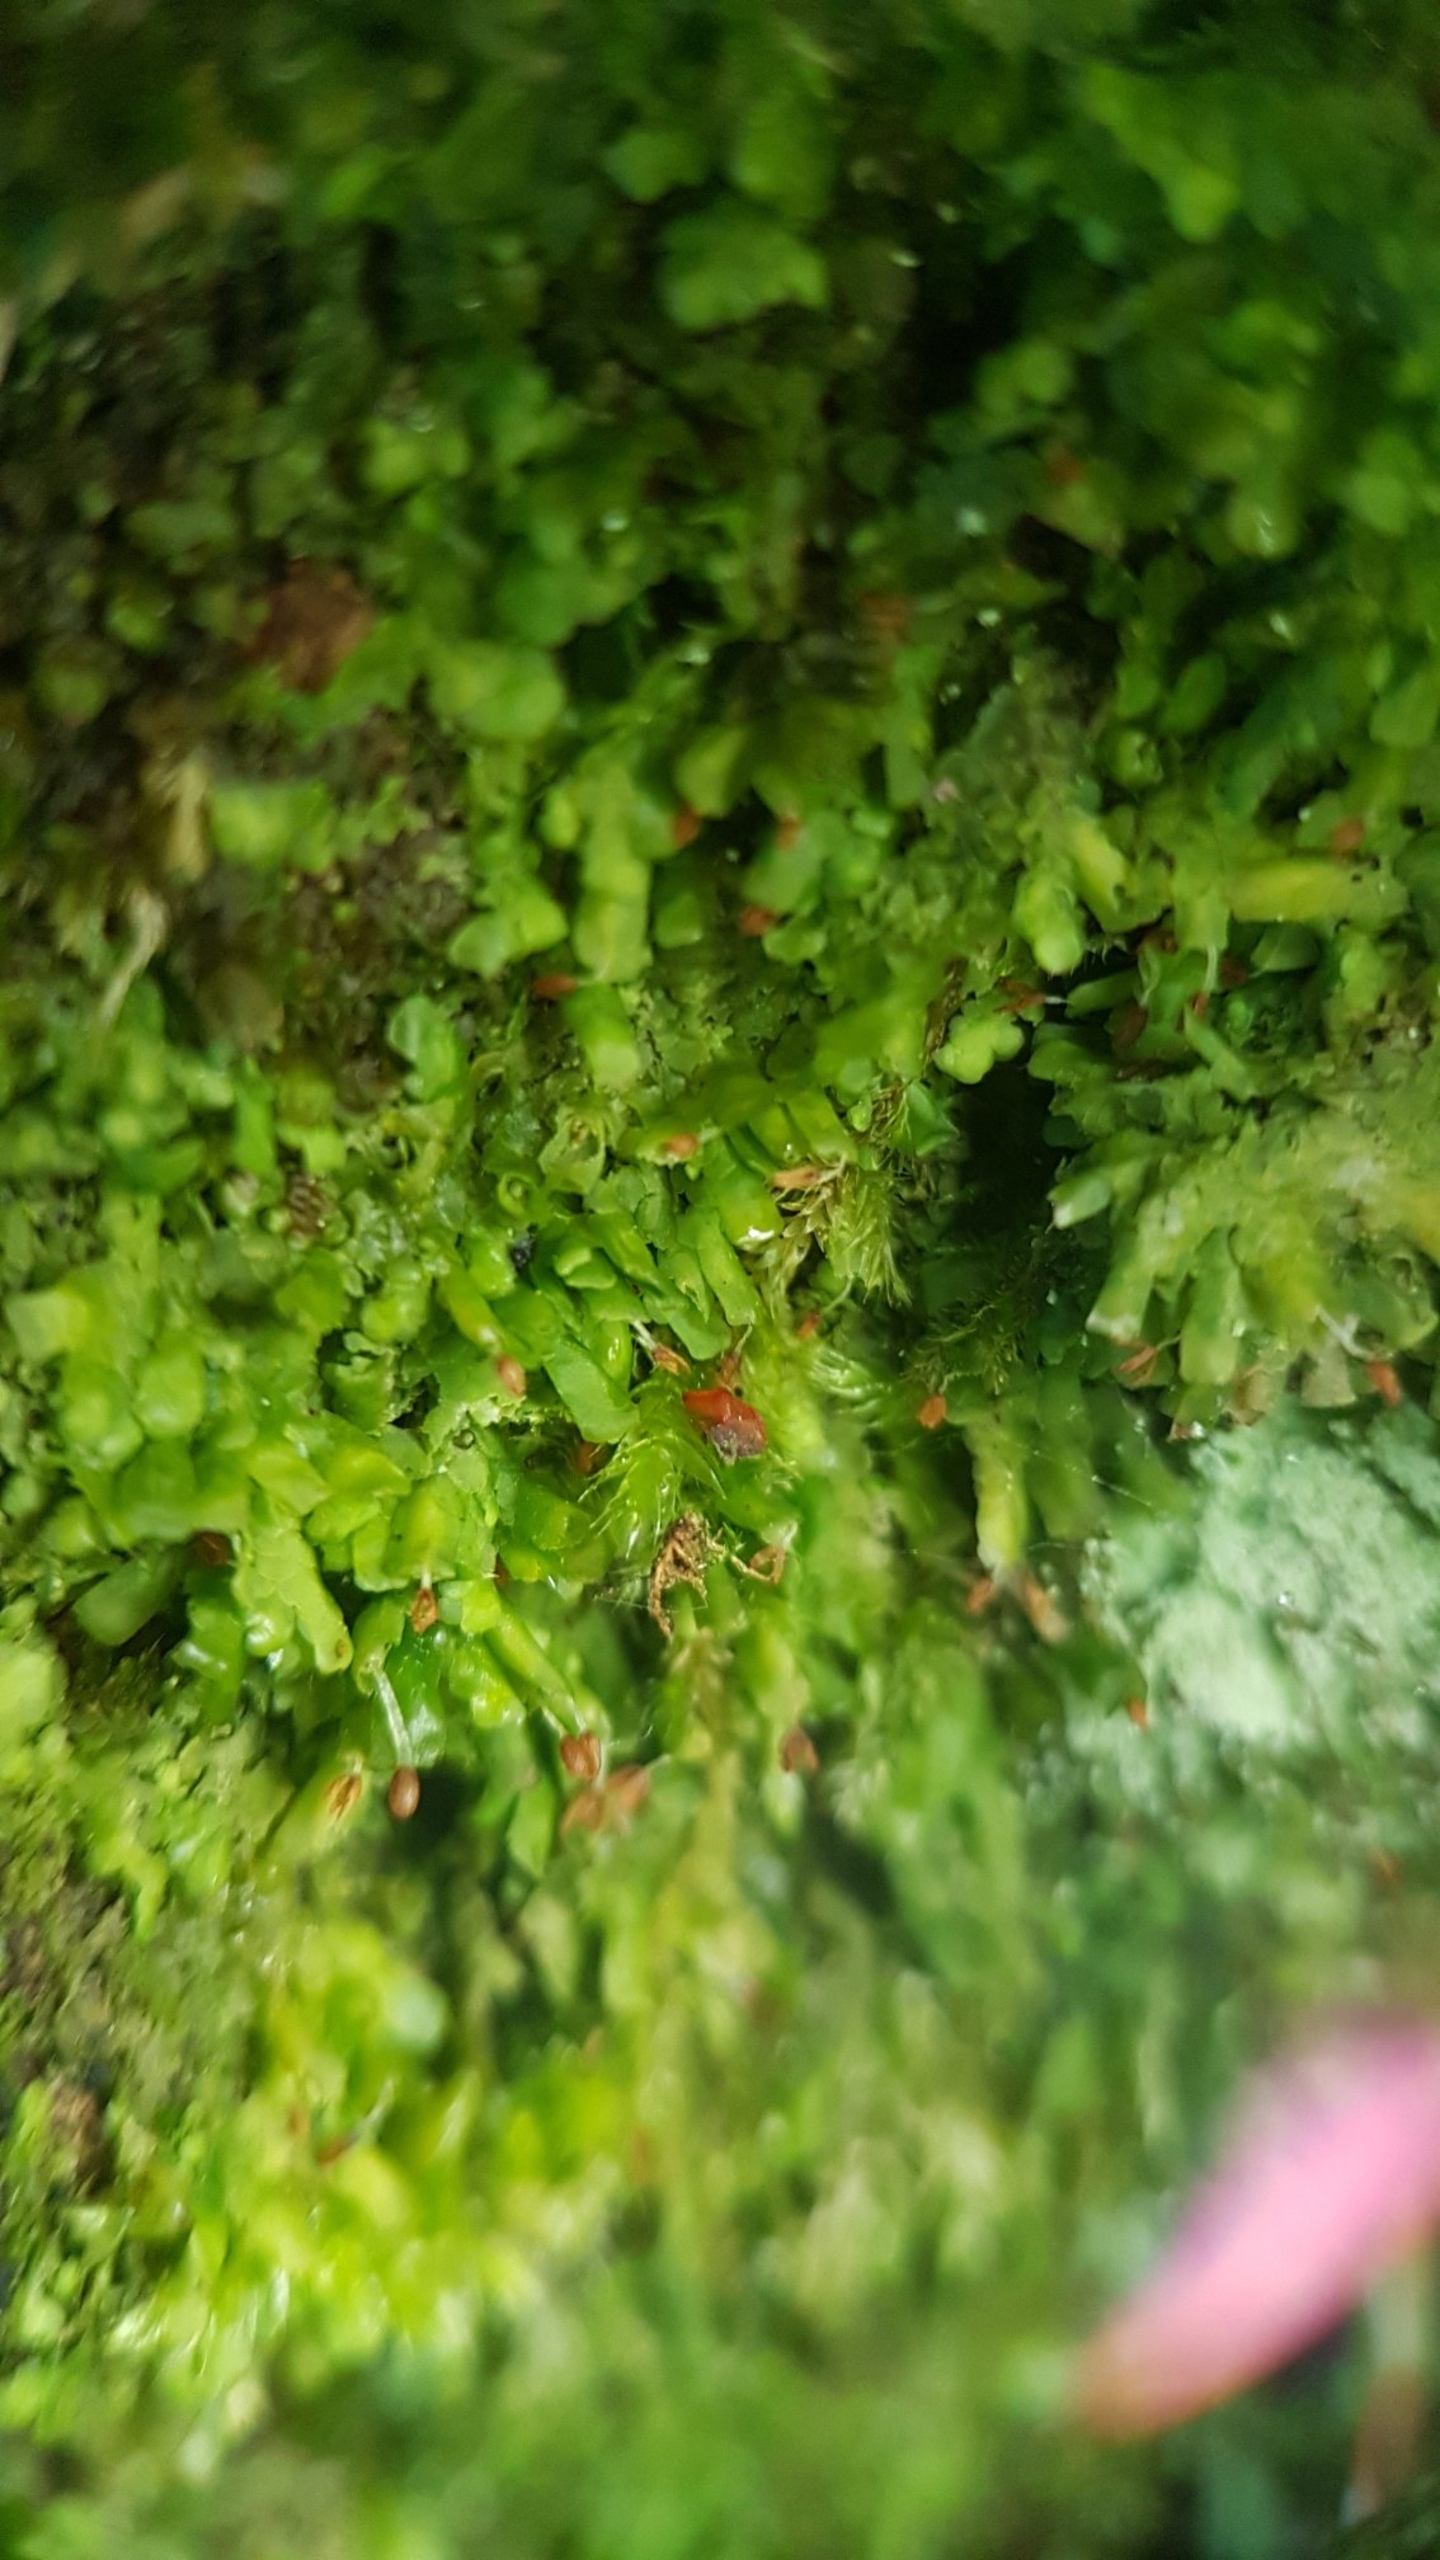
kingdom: Plantae
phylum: Marchantiophyta
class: Jungermanniopsida
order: Porellales
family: Radulaceae
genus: Radula
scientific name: Radula complanata
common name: Almindelig spartelmos
